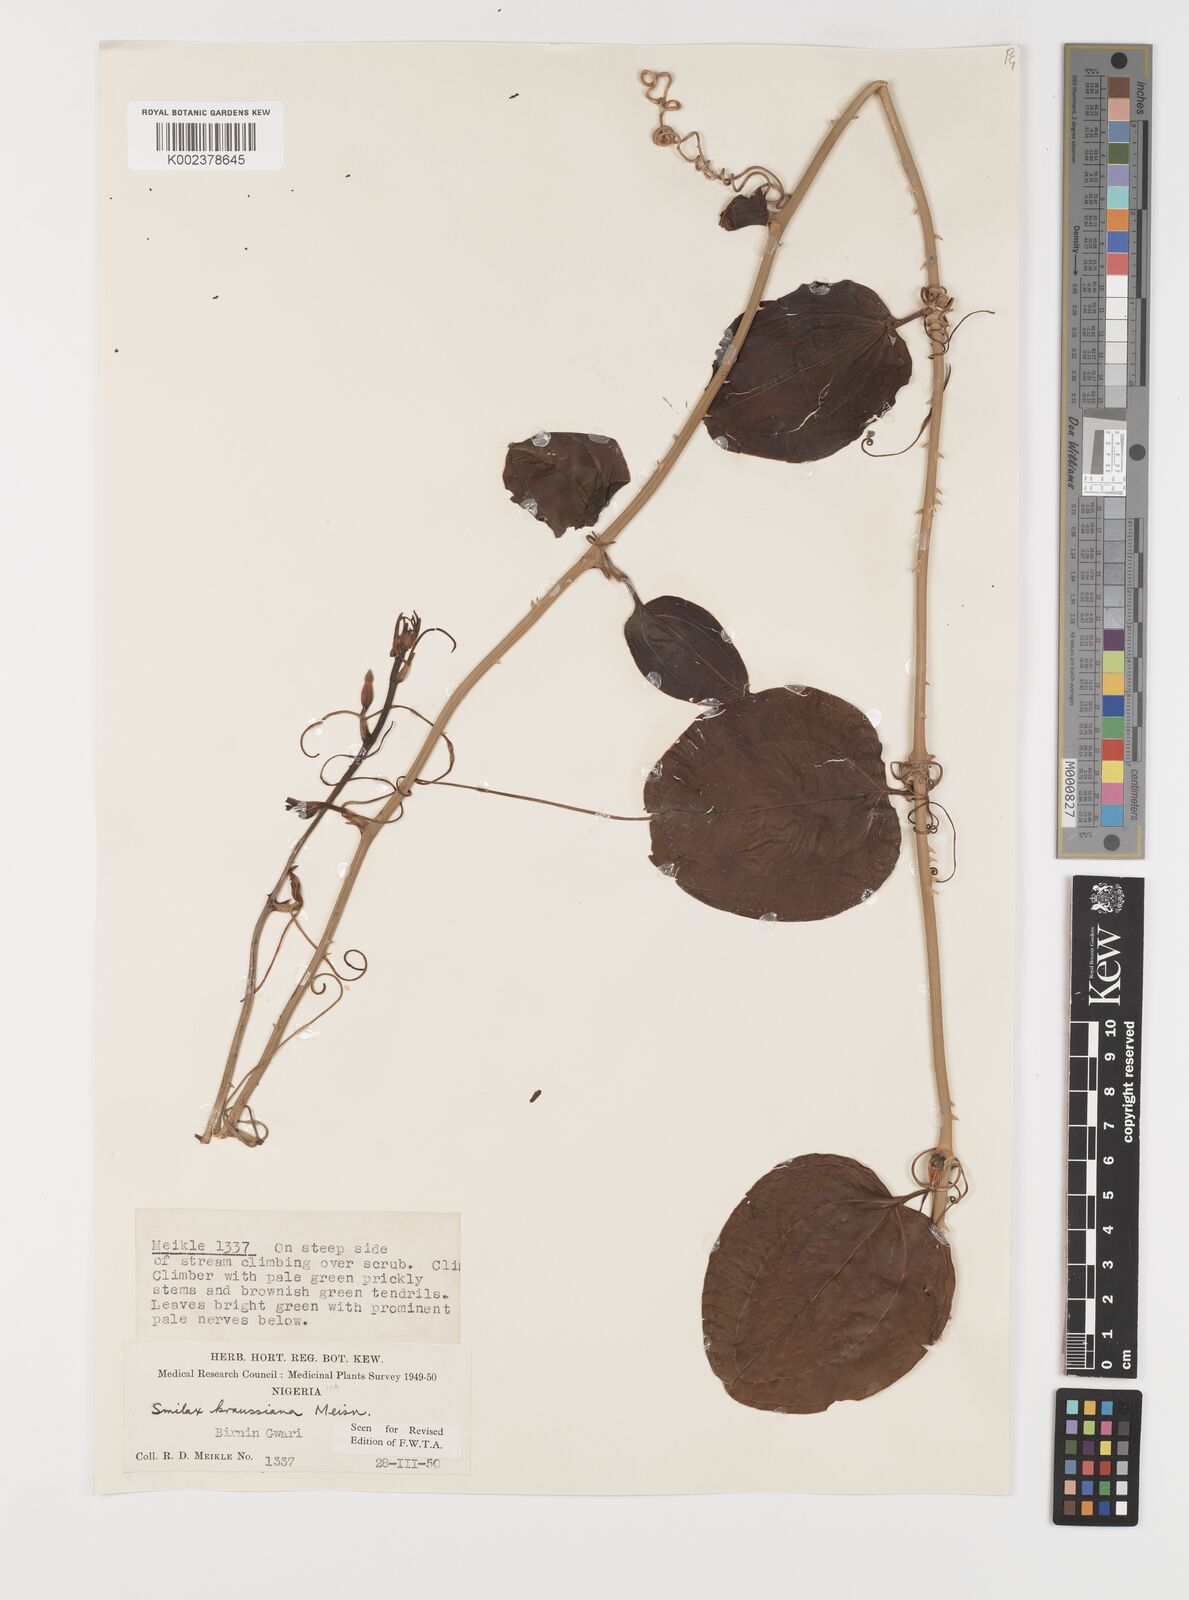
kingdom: Plantae
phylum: Tracheophyta
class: Liliopsida
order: Liliales
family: Smilacaceae
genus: Smilax
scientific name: Smilax anceps
